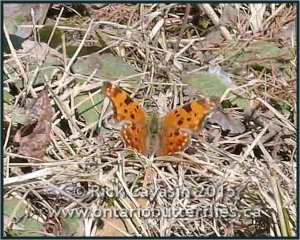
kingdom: Animalia
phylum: Arthropoda
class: Insecta
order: Lepidoptera
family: Nymphalidae
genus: Polygonia
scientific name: Polygonia comma
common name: Eastern Comma
